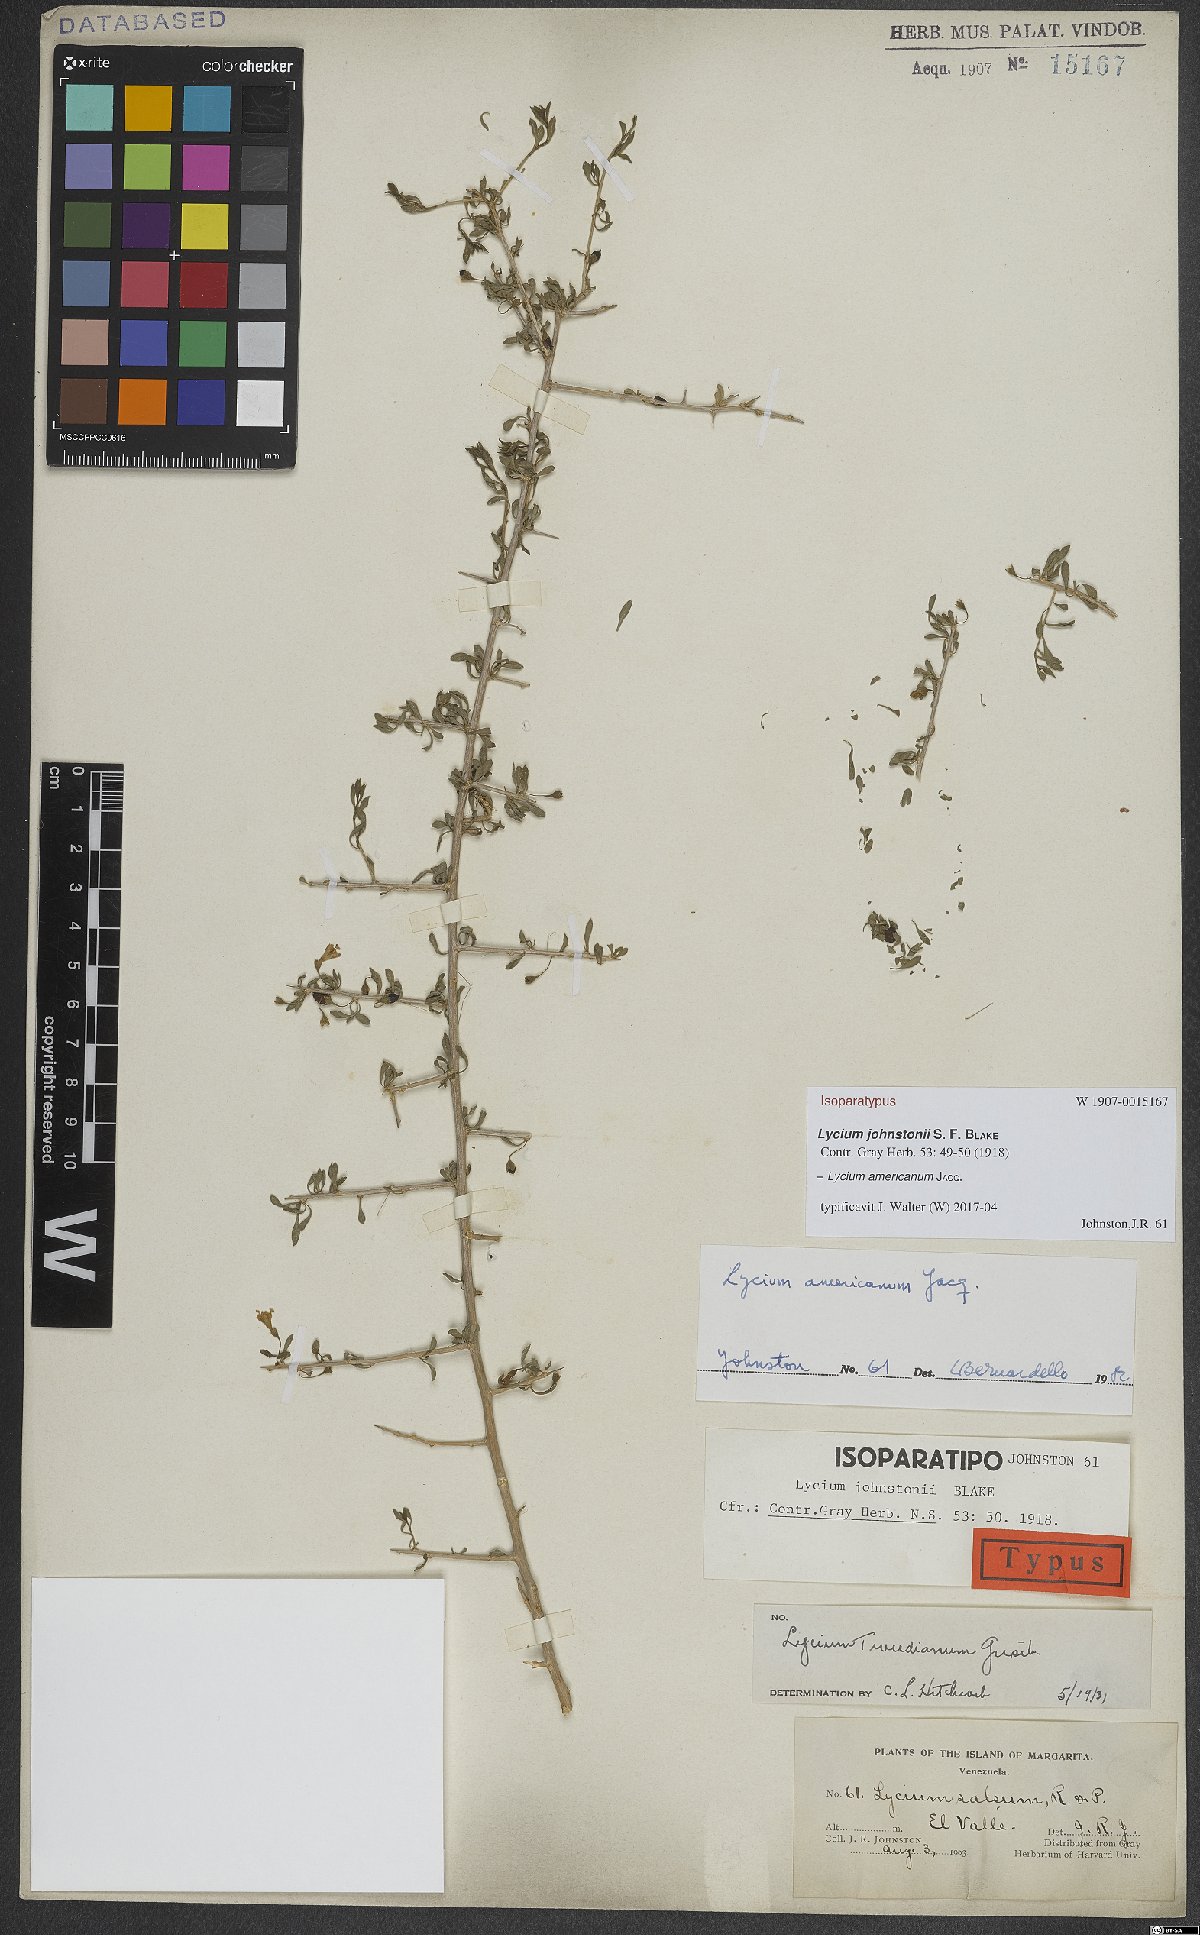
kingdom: Plantae
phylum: Tracheophyta
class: Magnoliopsida
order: Solanales
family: Solanaceae
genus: Lycium
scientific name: Lycium americanum
